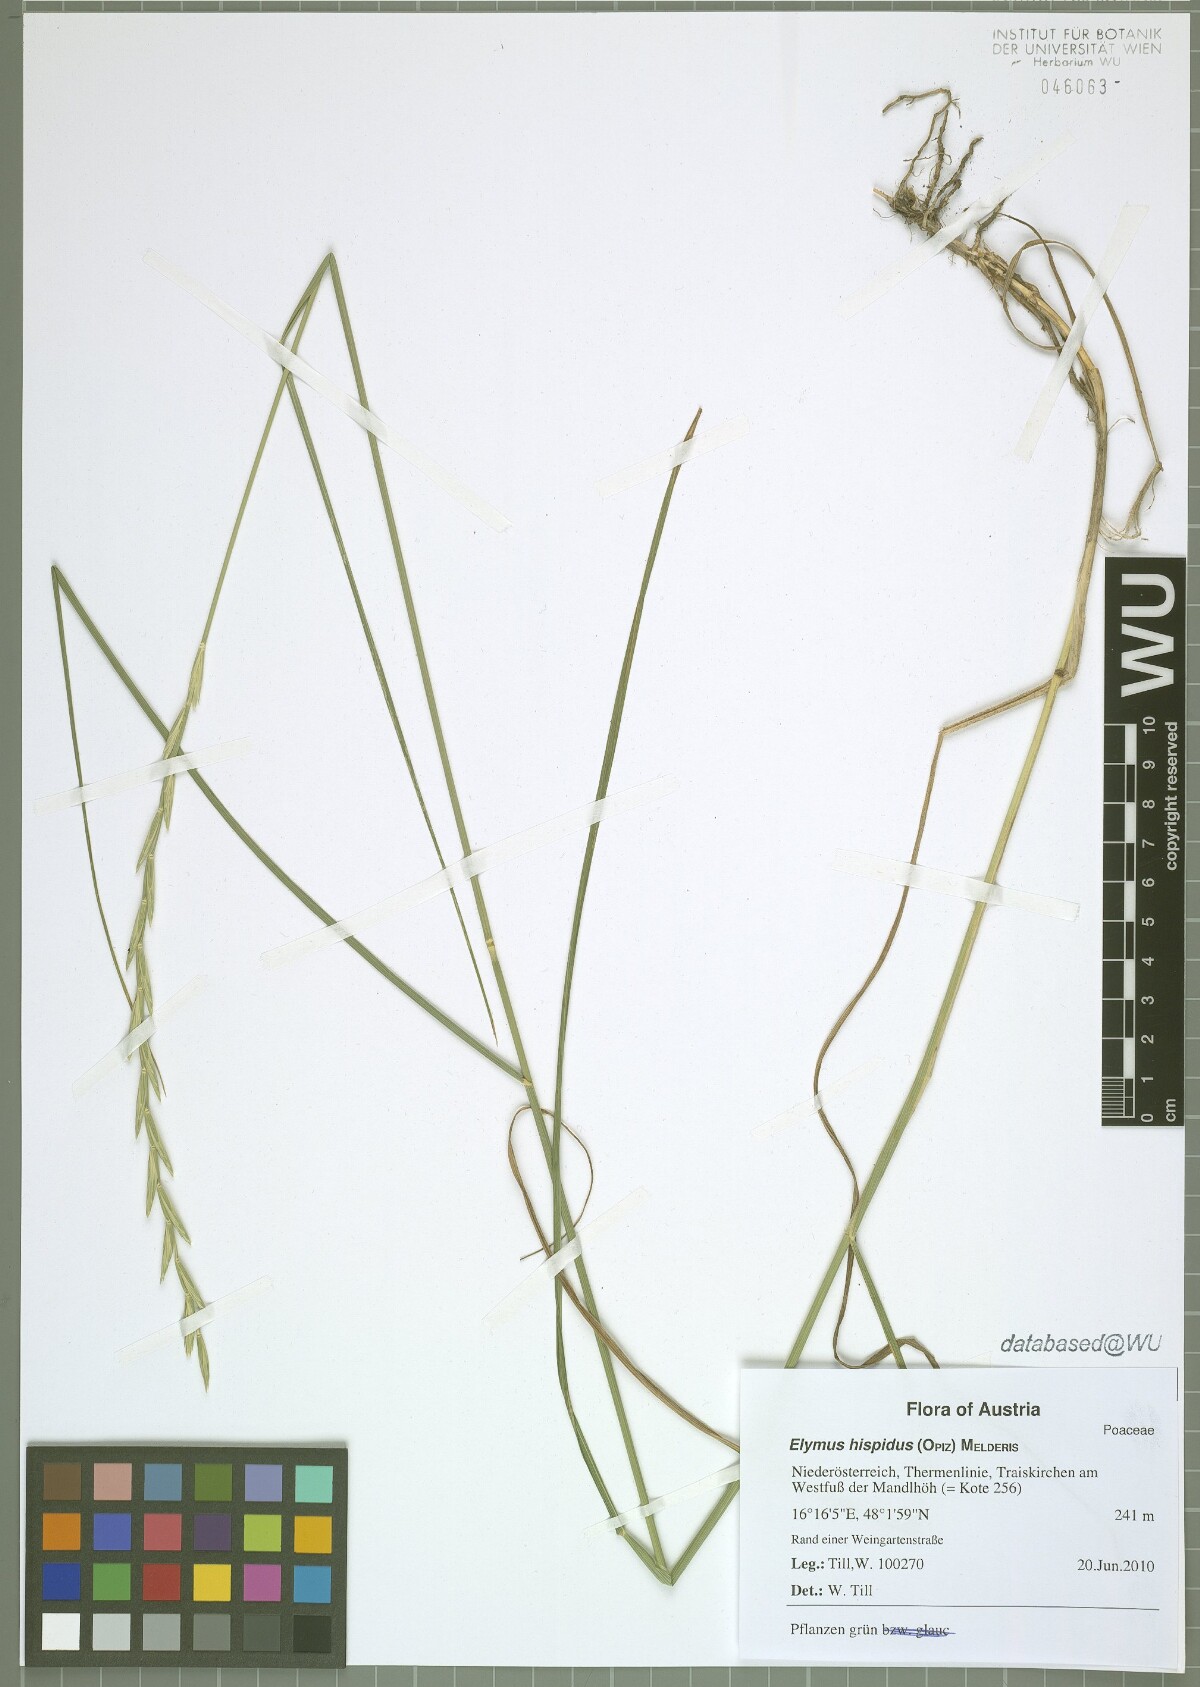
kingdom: Plantae
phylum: Tracheophyta
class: Liliopsida
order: Poales
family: Poaceae
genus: Thinopyrum
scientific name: Thinopyrum intermedium
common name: Intermediate wheatgrass
